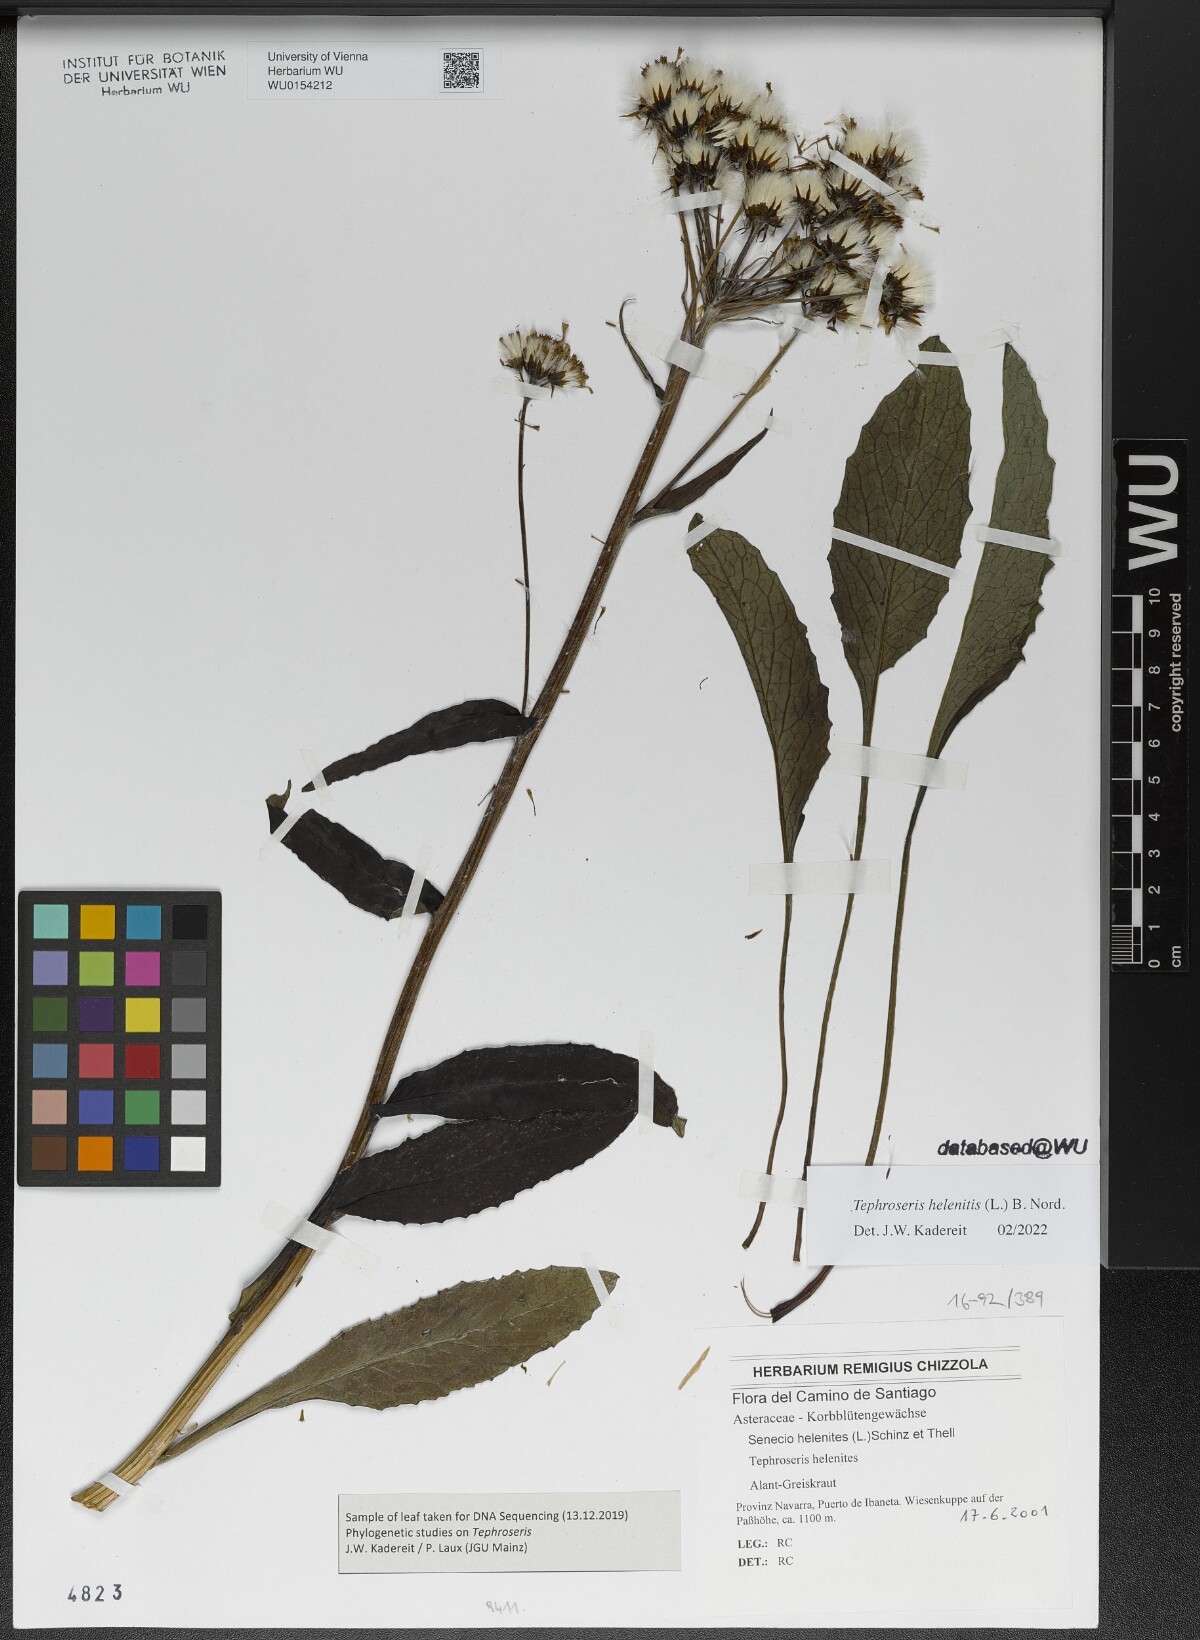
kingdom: Plantae
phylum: Tracheophyta
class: Magnoliopsida
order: Asterales
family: Asteraceae
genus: Tephroseris
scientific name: Tephroseris helenitis
